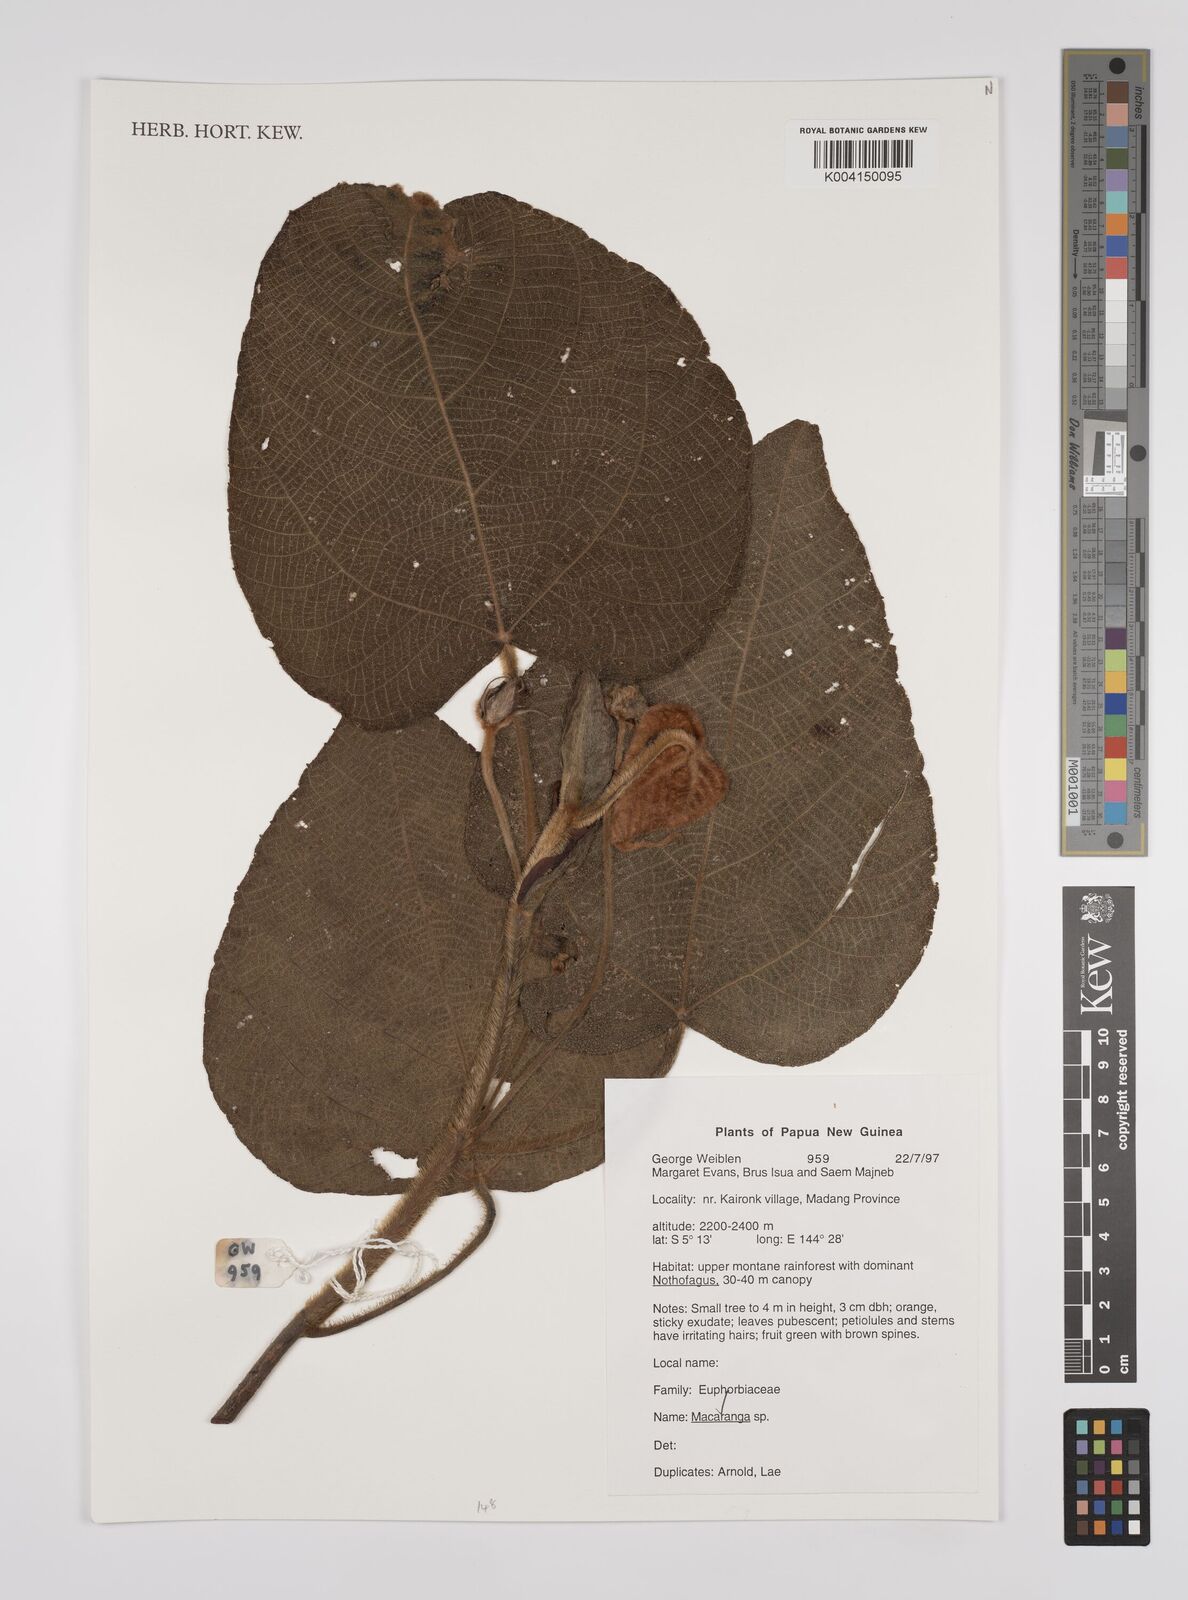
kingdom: Plantae
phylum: Tracheophyta
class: Magnoliopsida
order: Malpighiales
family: Euphorbiaceae
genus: Macaranga
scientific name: Macaranga
